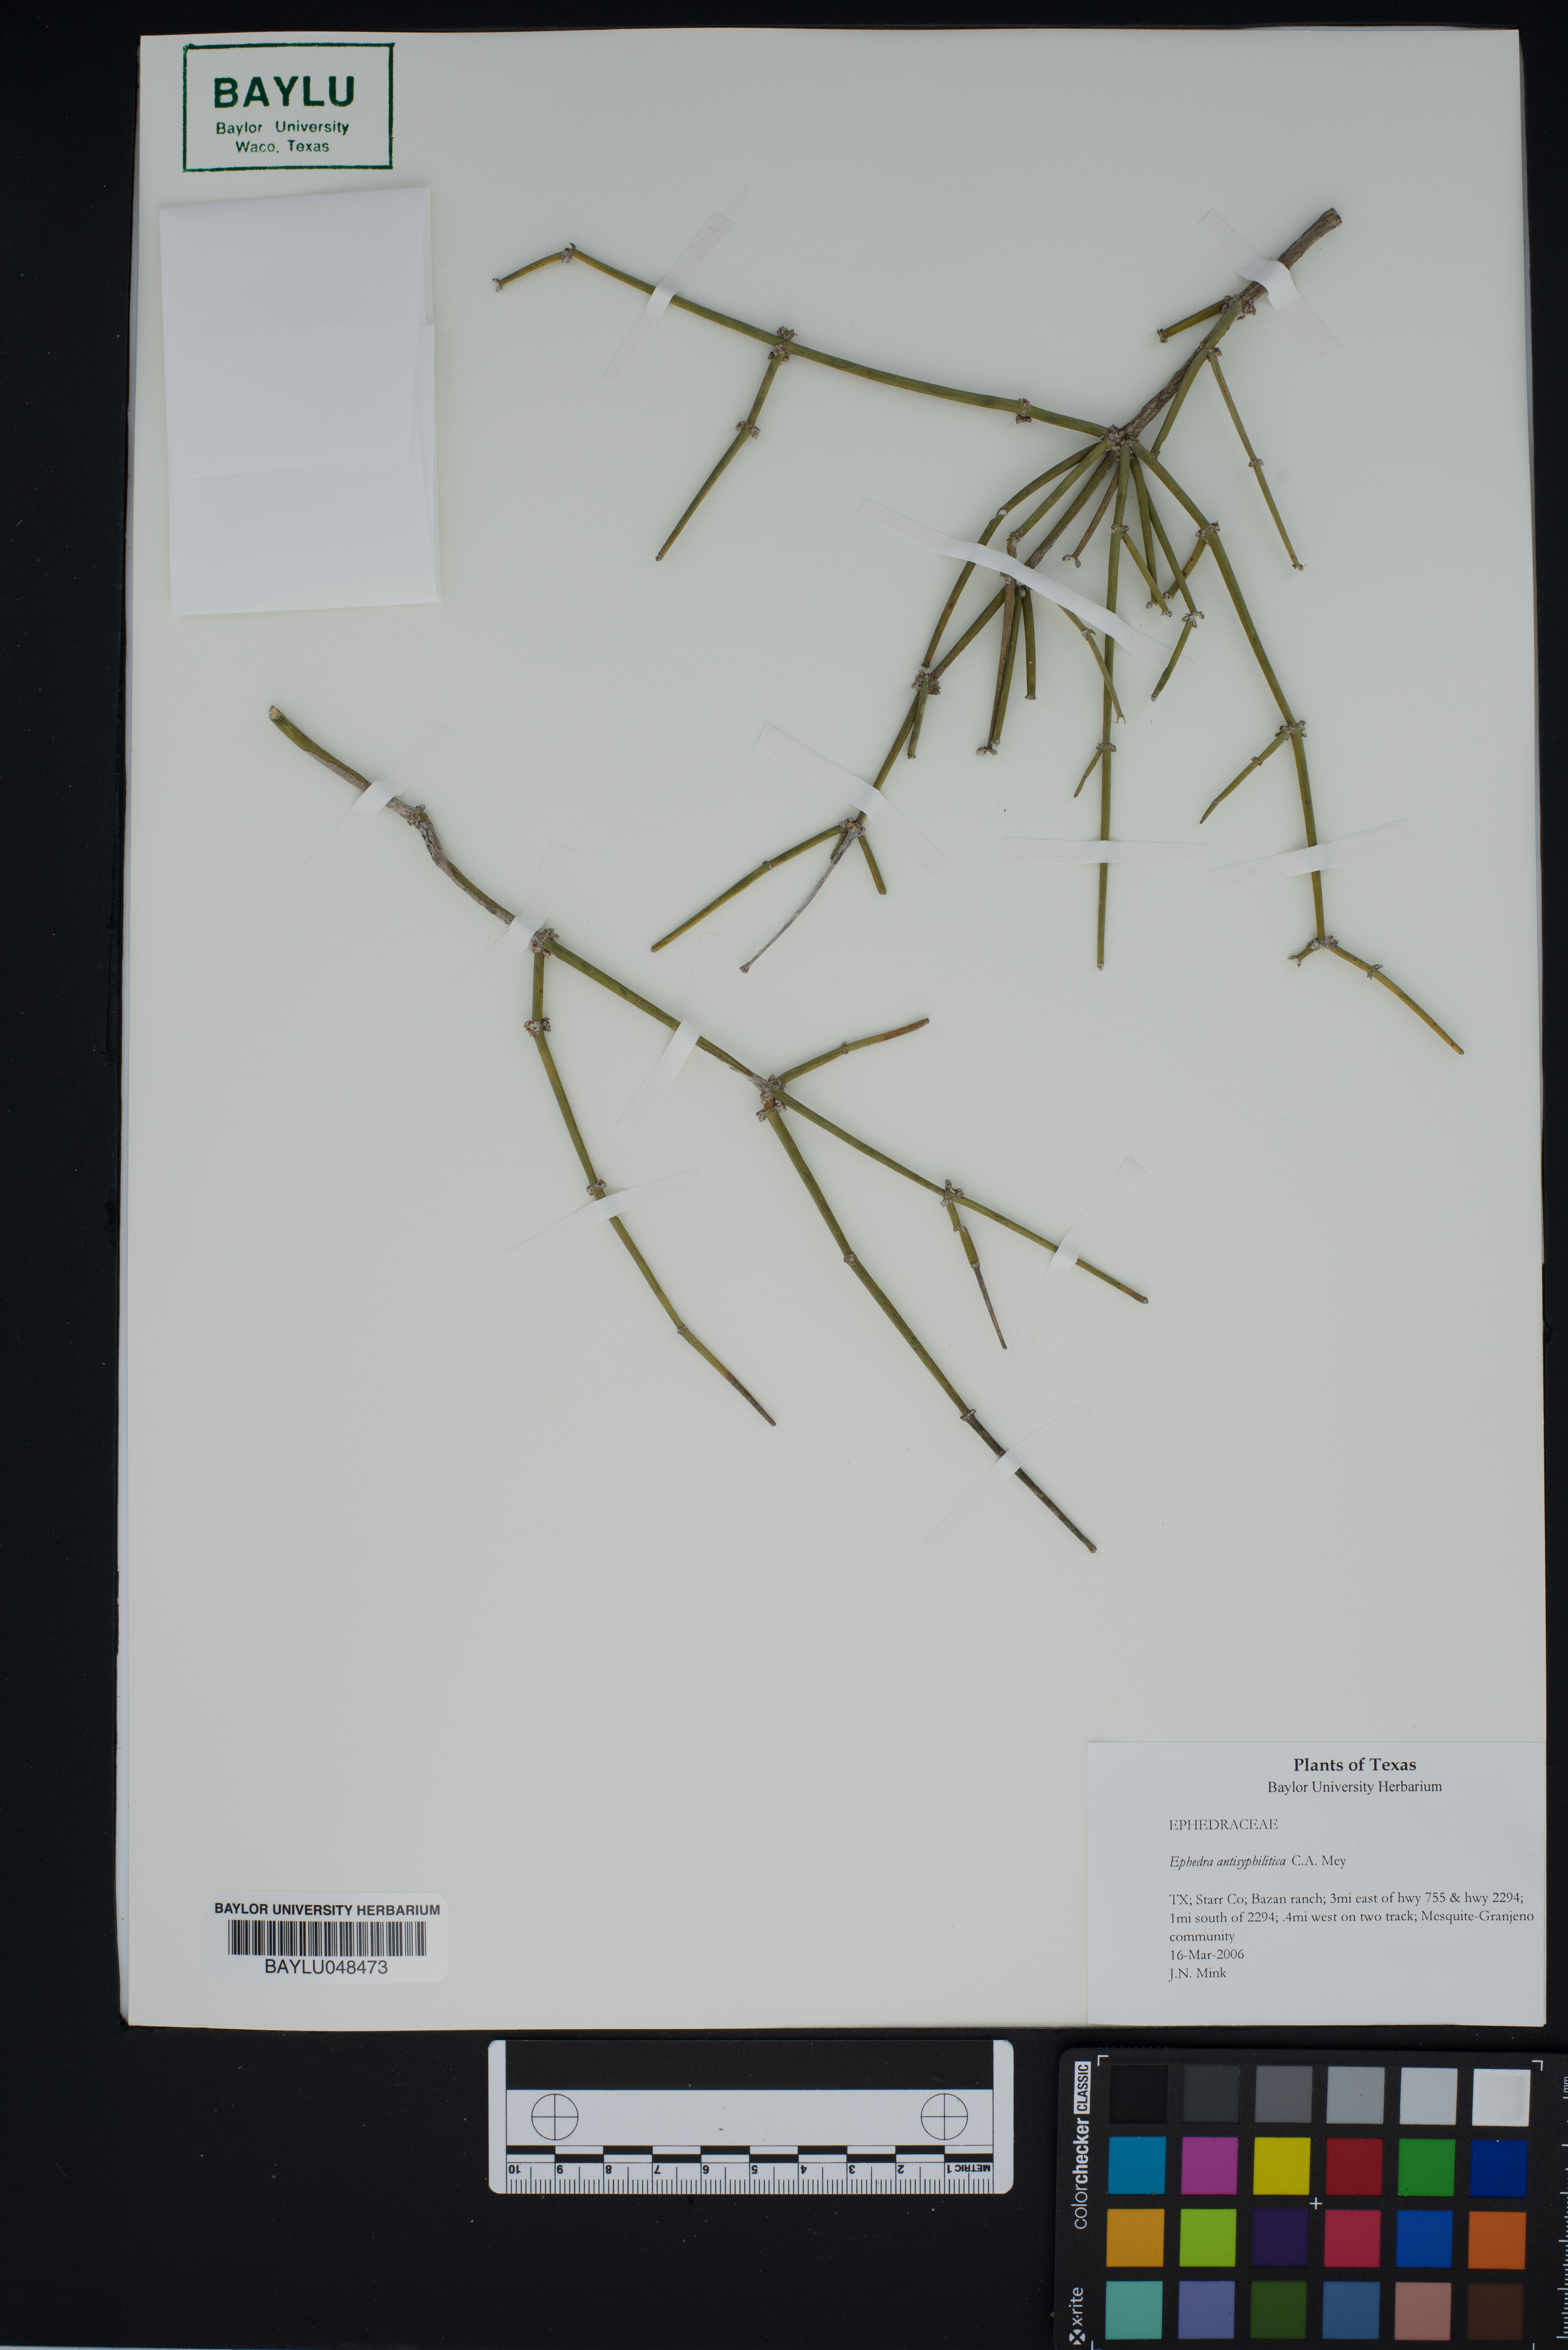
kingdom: Plantae
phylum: Tracheophyta
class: Gnetopsida
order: Ephedrales
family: Ephedraceae
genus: Ephedra
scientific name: Ephedra antisyphilitica
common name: Clipweed
